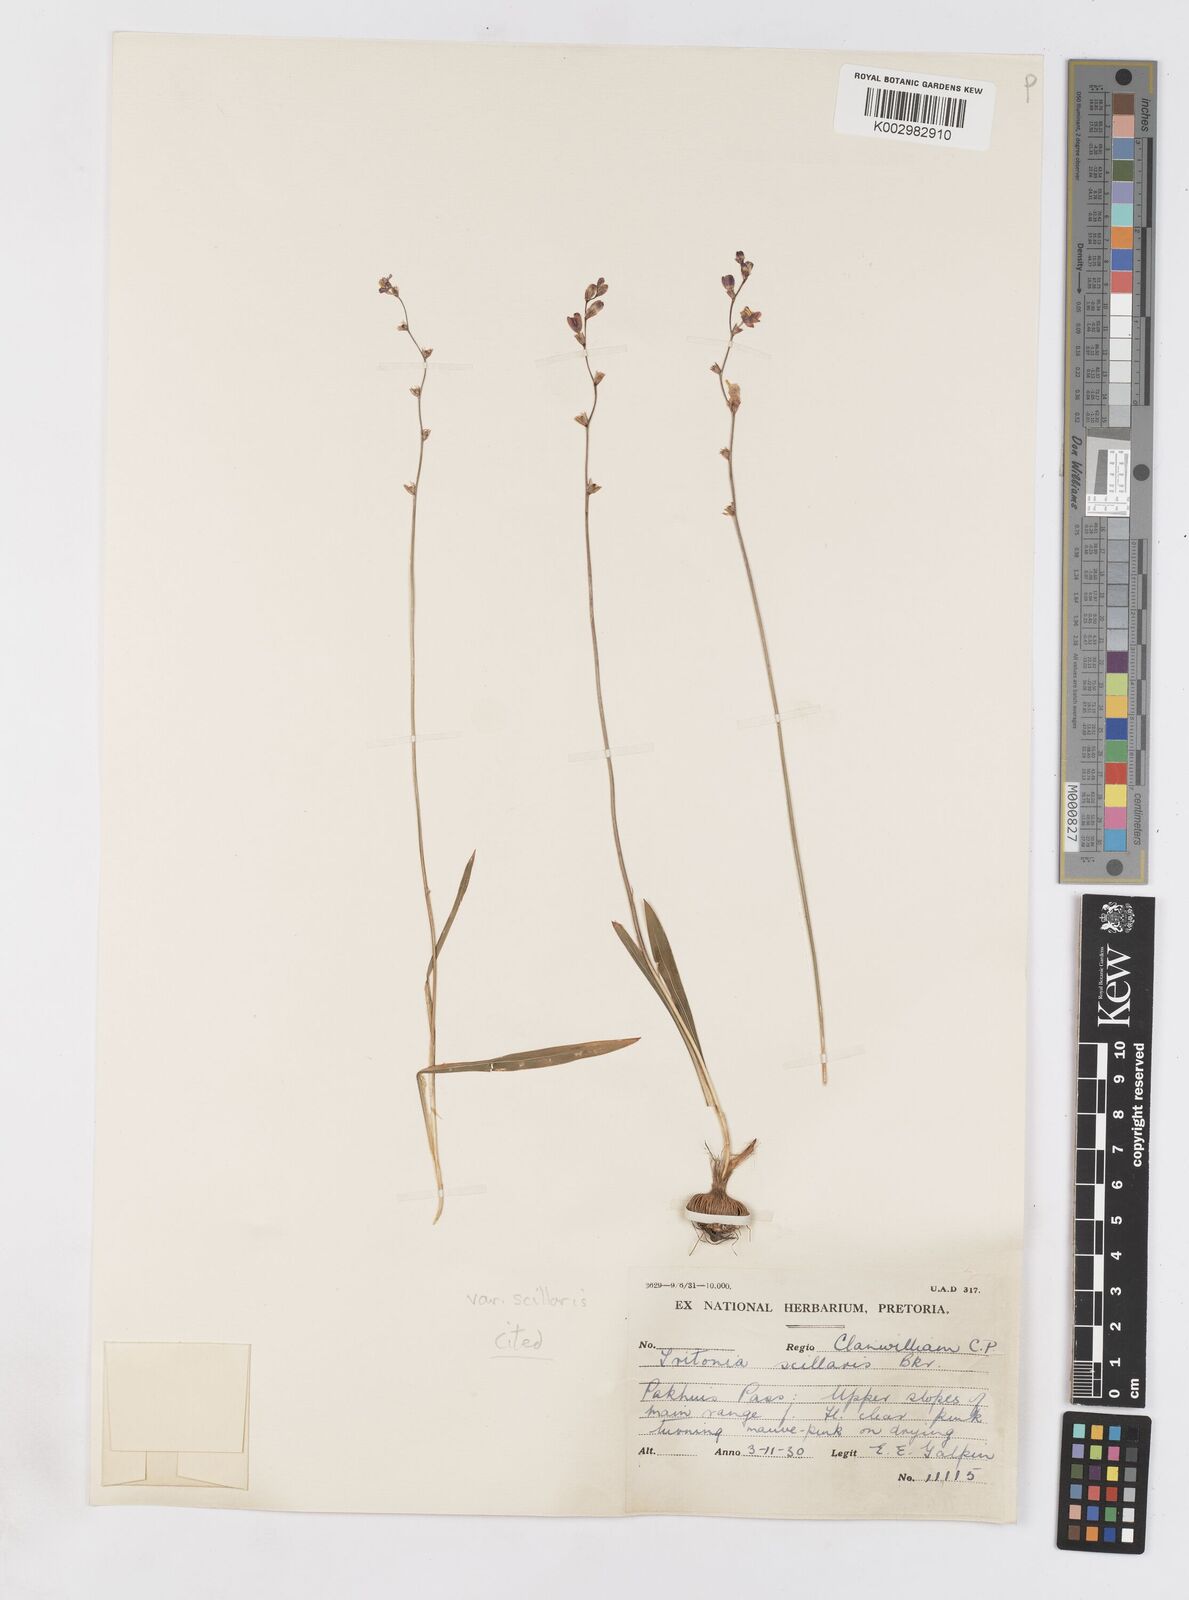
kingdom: Plantae
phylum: Tracheophyta
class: Liliopsida
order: Asparagales
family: Iridaceae
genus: Ixia
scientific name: Ixia scillaris
